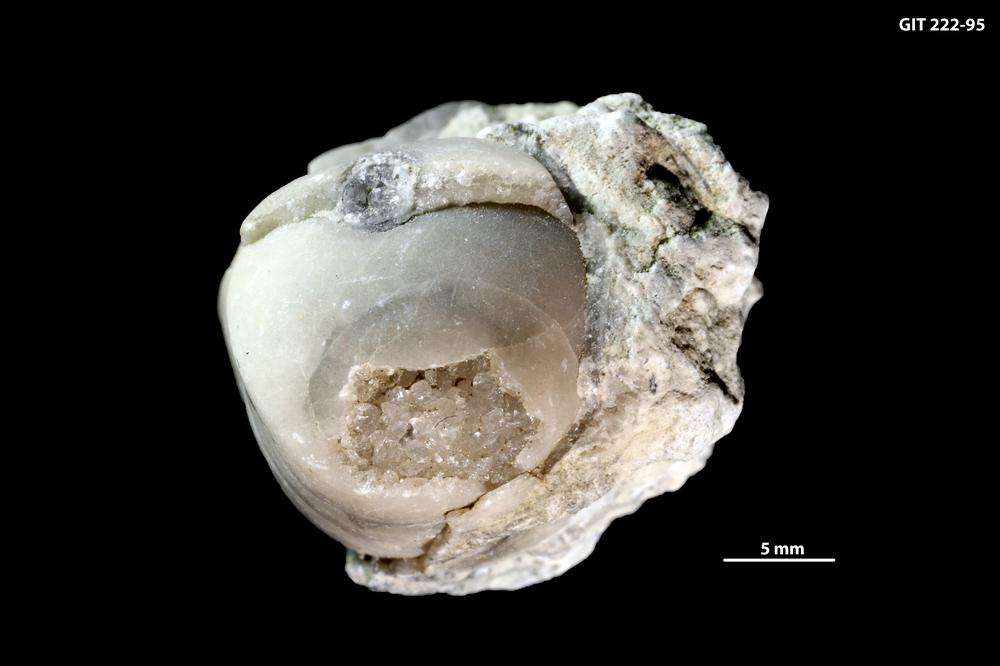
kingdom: Animalia
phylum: Mollusca
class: Cephalopoda
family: Trocholitidae
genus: Discoceras
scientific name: Discoceras Schroederoceras rarospira
